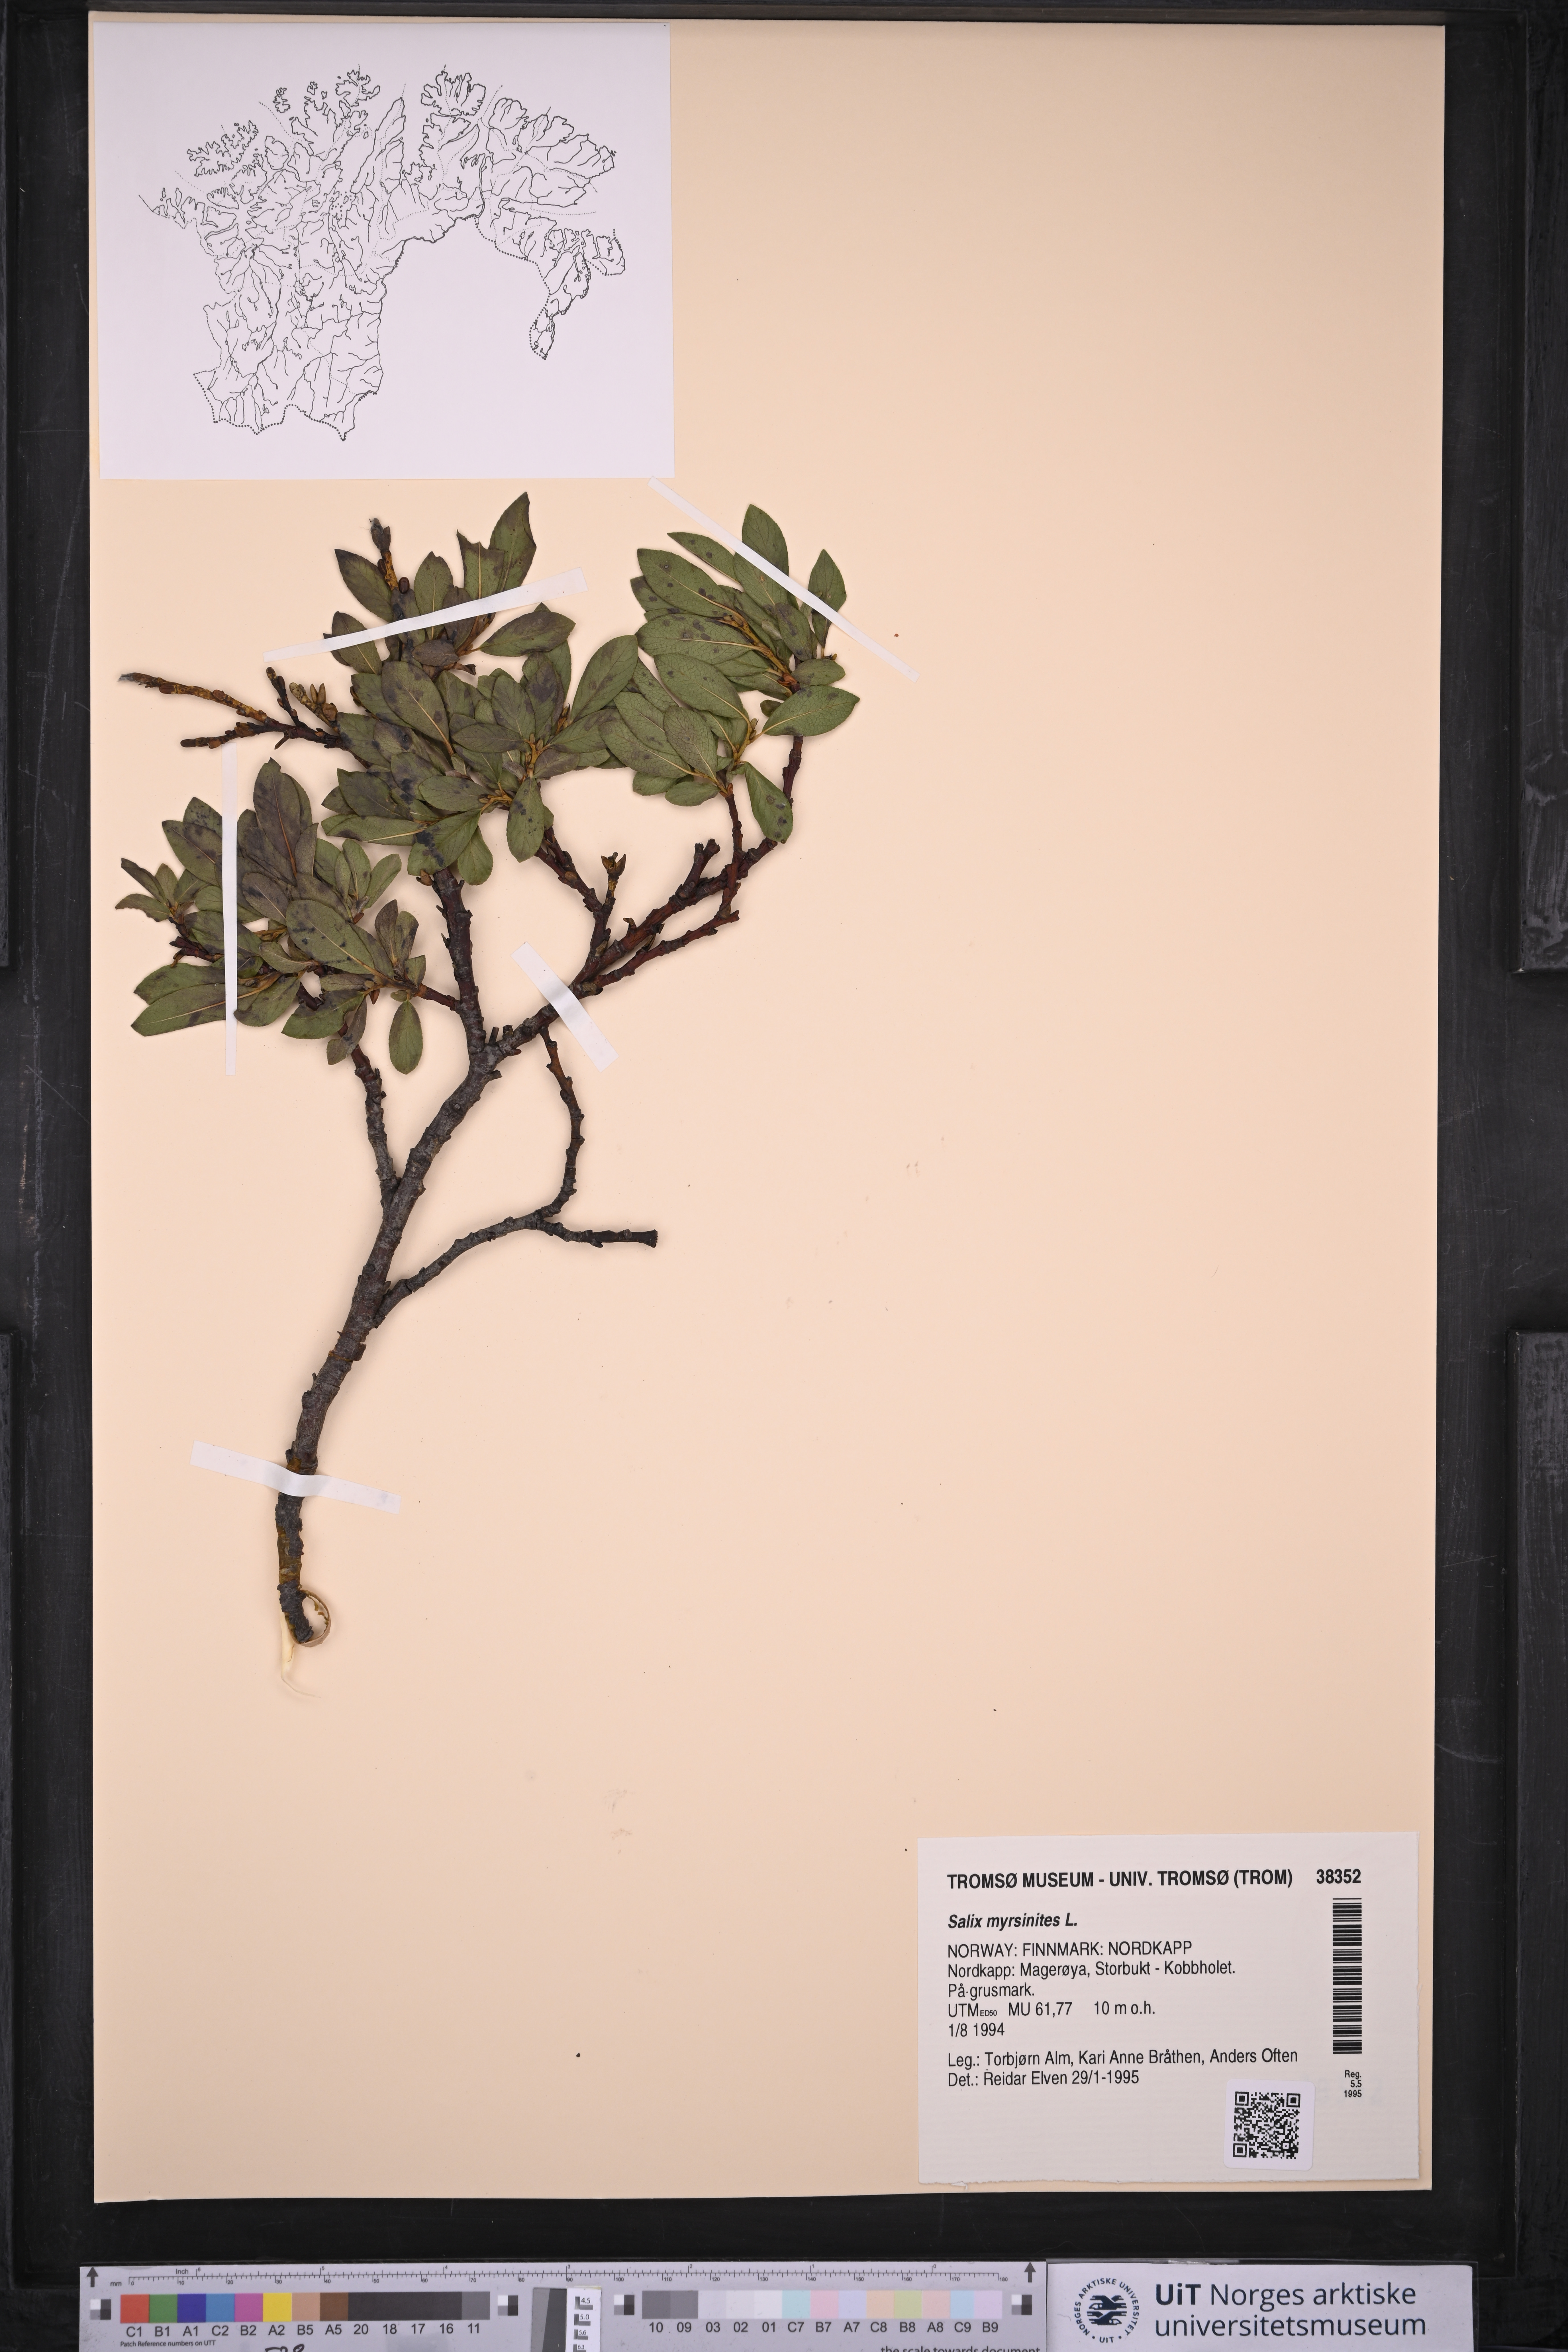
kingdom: Plantae
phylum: Tracheophyta
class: Magnoliopsida
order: Malpighiales
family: Salicaceae
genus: Salix
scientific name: Salix myrsinites
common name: Myrtle willow
